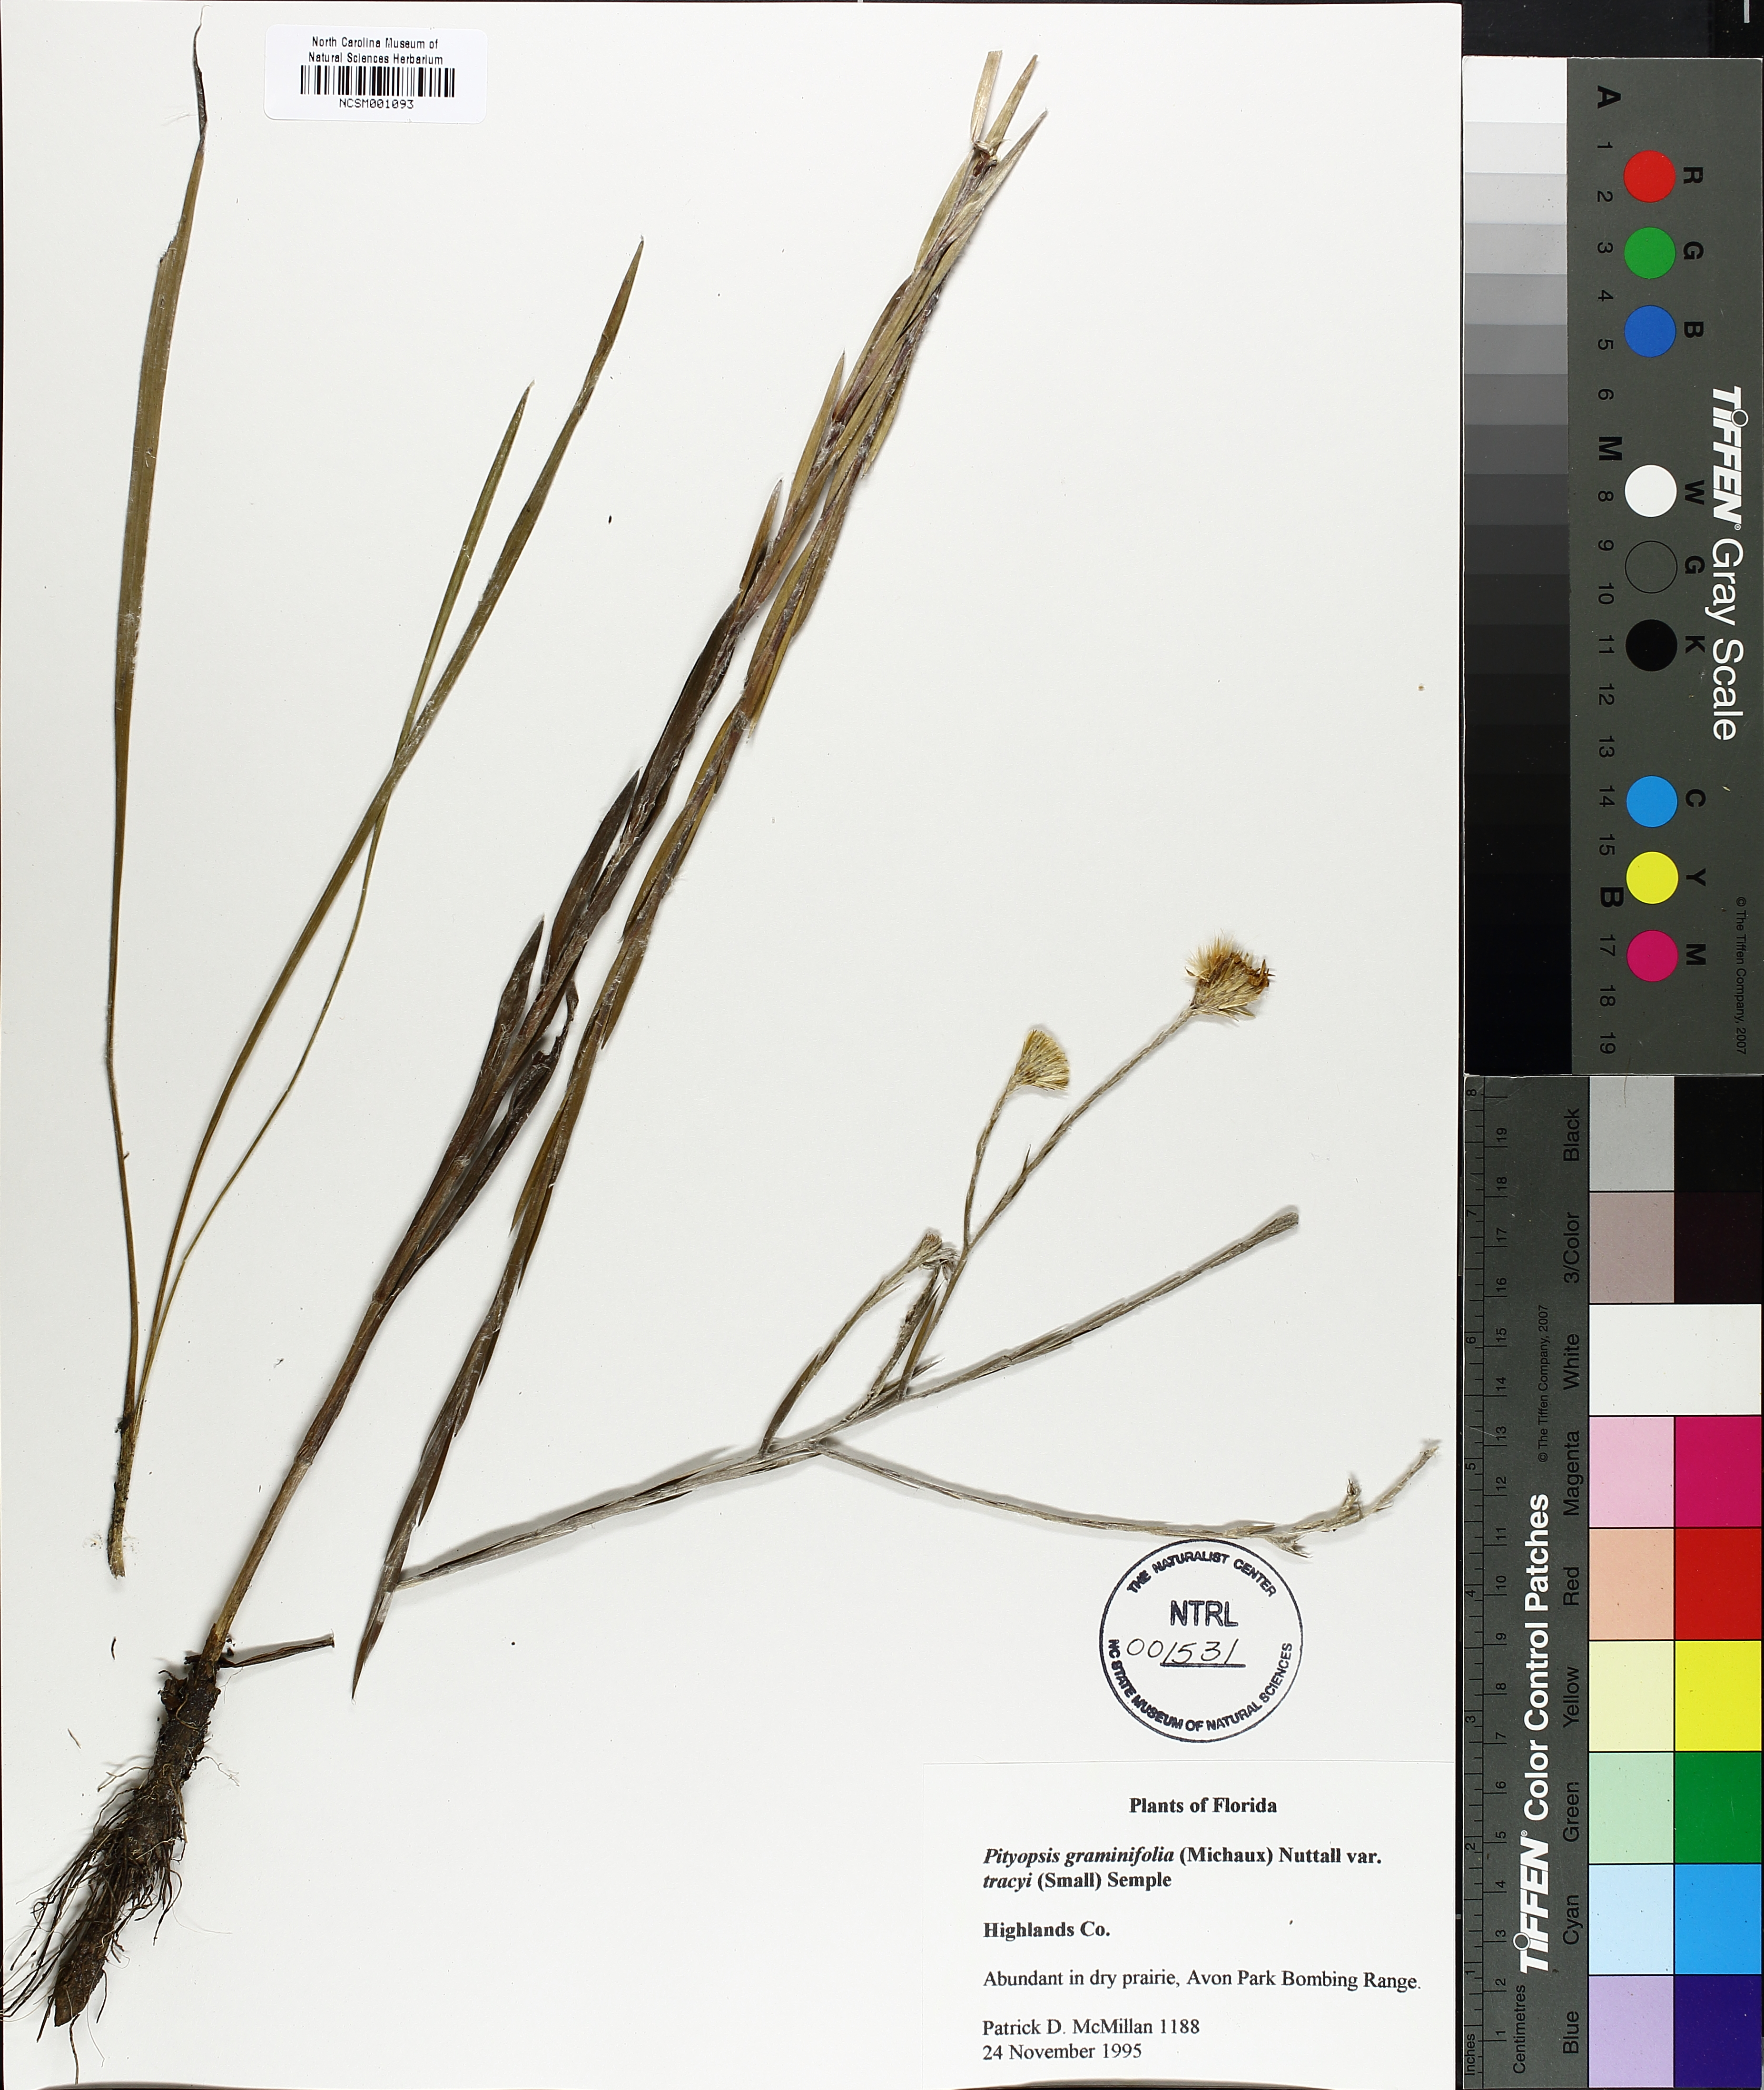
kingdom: Plantae
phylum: Tracheophyta
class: Magnoliopsida
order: Asterales
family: Asteraceae
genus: Pityopsis
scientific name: Pityopsis tracyi
